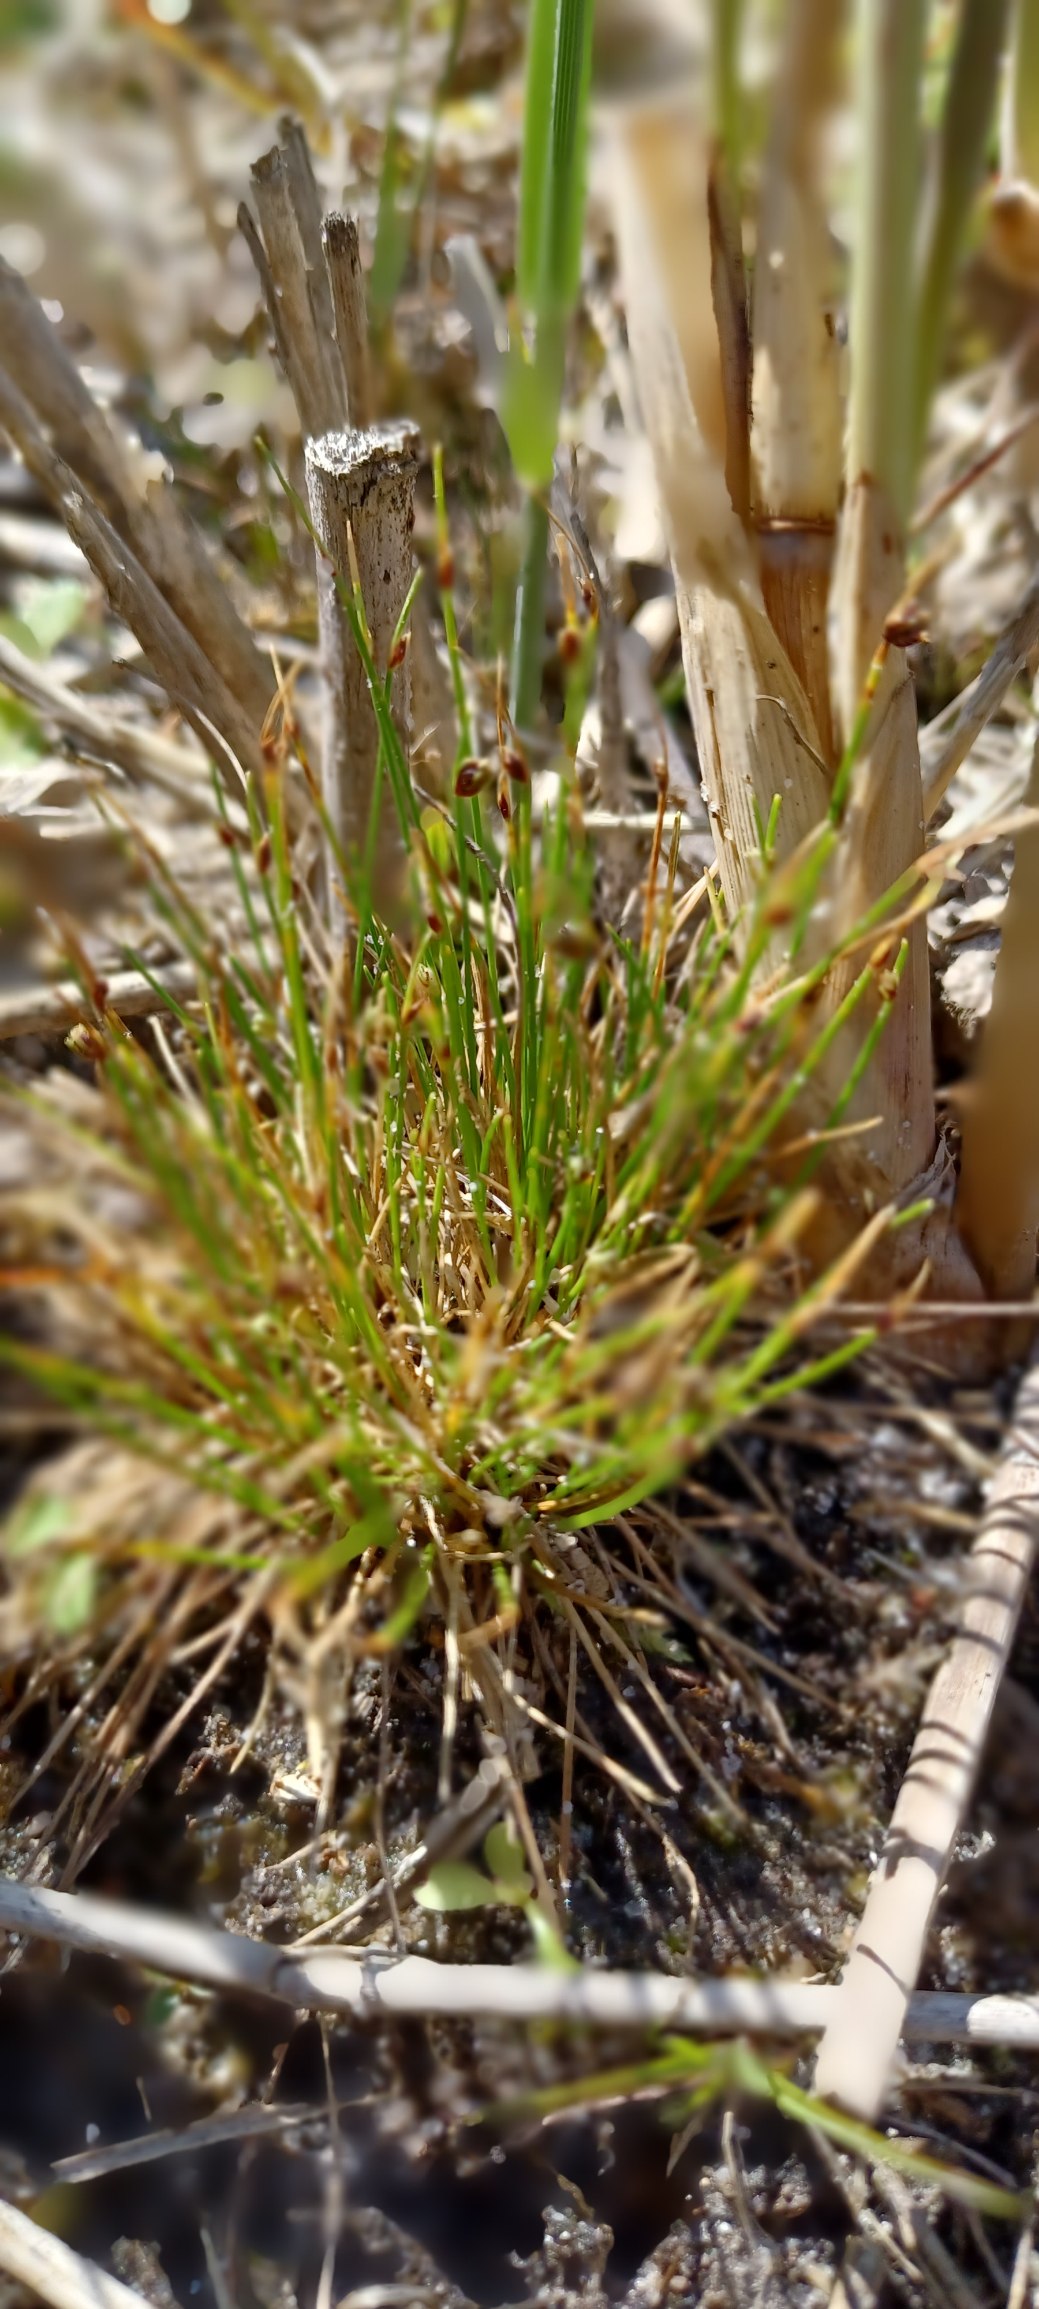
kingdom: Plantae
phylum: Tracheophyta
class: Liliopsida
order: Poales
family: Cyperaceae
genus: Isolepis
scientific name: Isolepis setacea
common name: Børste-kogleaks
